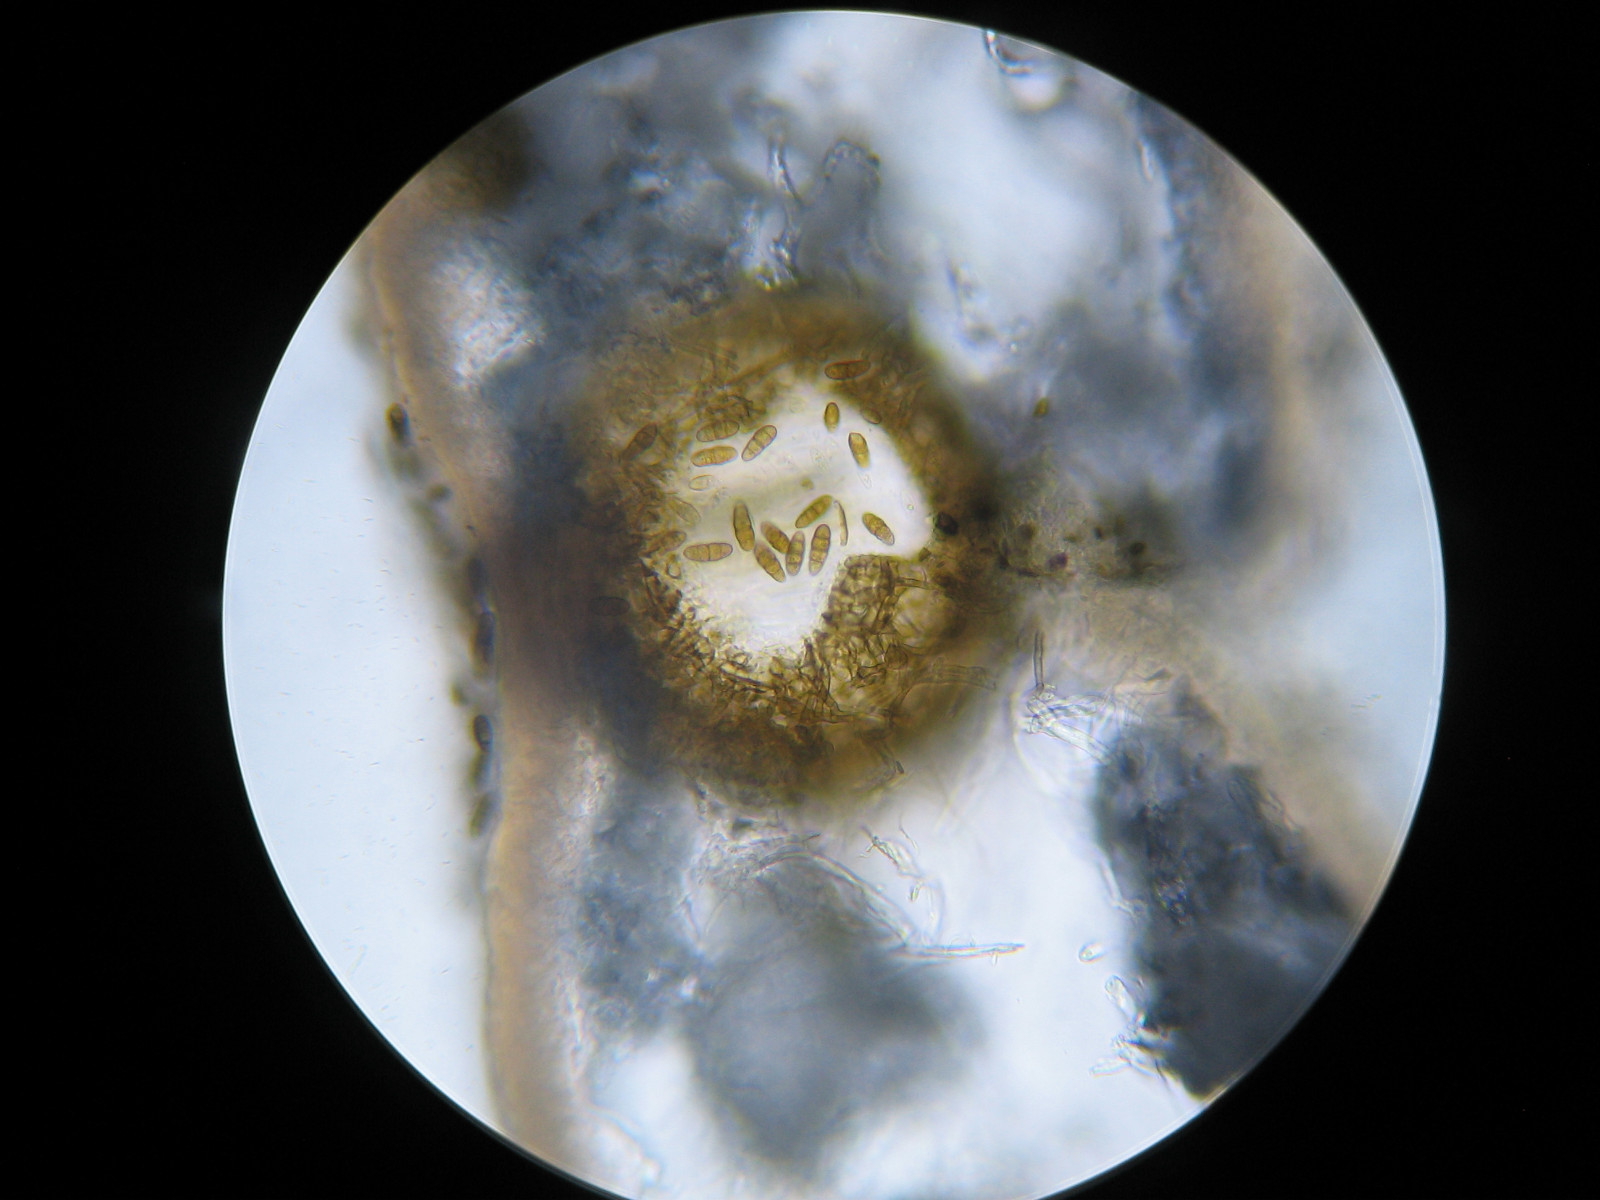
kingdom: Fungi
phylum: Ascomycota
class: Dothideomycetes
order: Pleosporales
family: Phaeosphaeriaceae
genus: Didymocyrtis
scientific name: Didymocyrtis ramalinae
